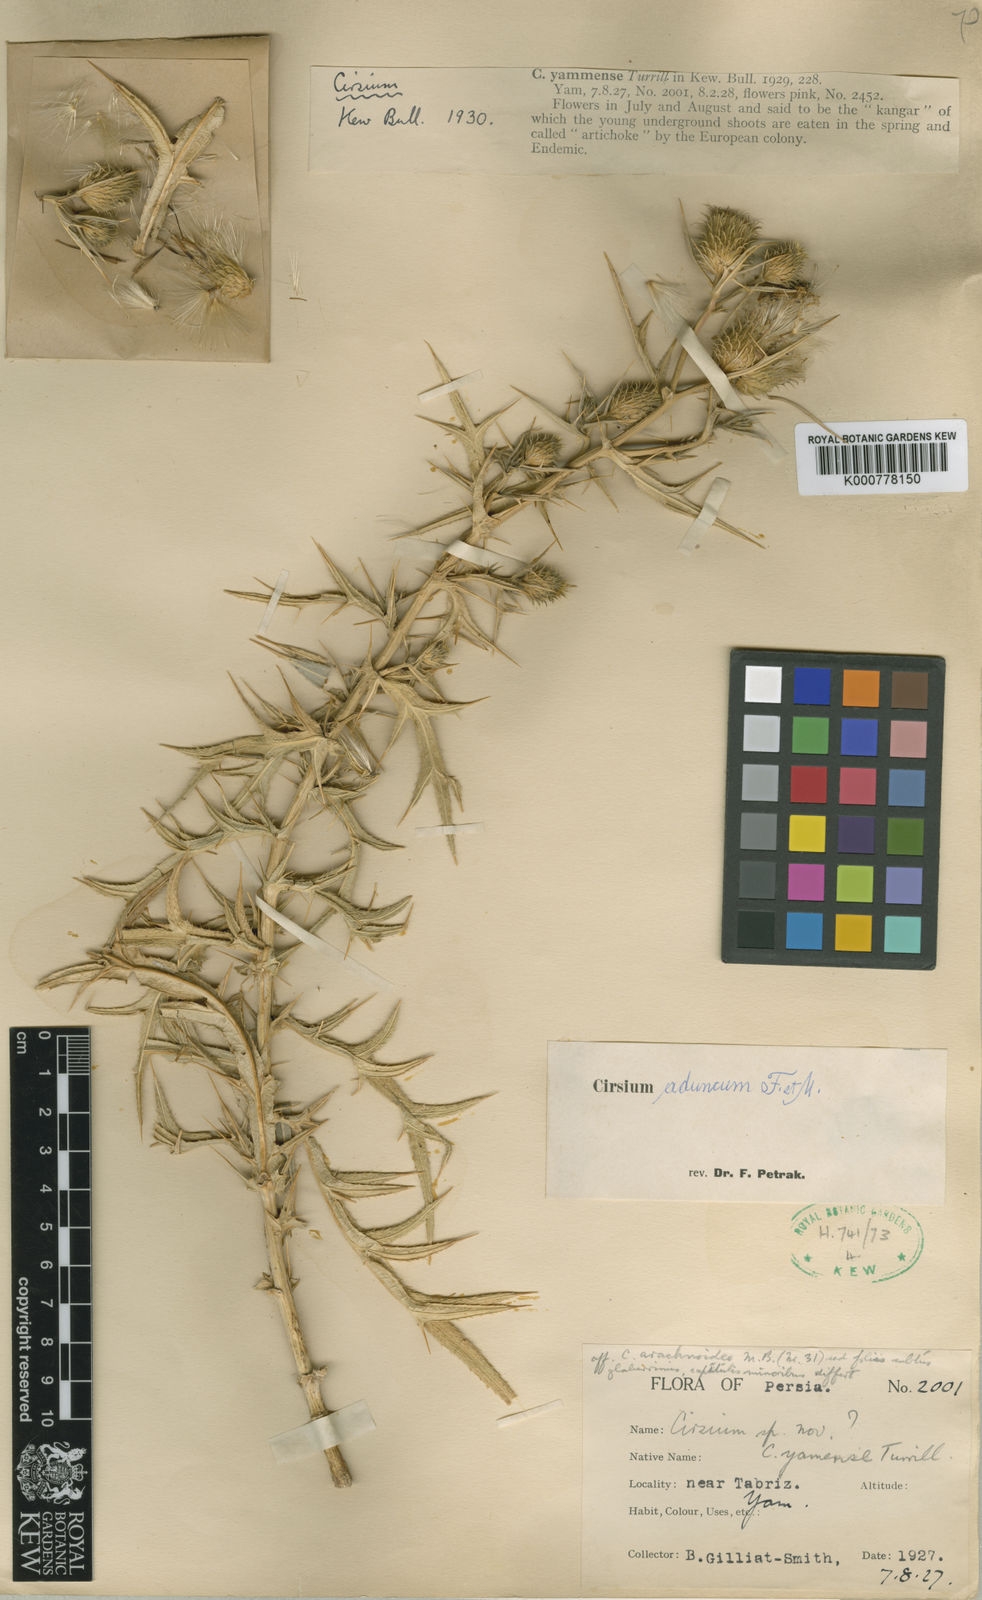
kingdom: Plantae
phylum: Tracheophyta
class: Magnoliopsida
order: Asterales
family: Asteraceae
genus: Lophiolepis
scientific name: Lophiolepis rigida
